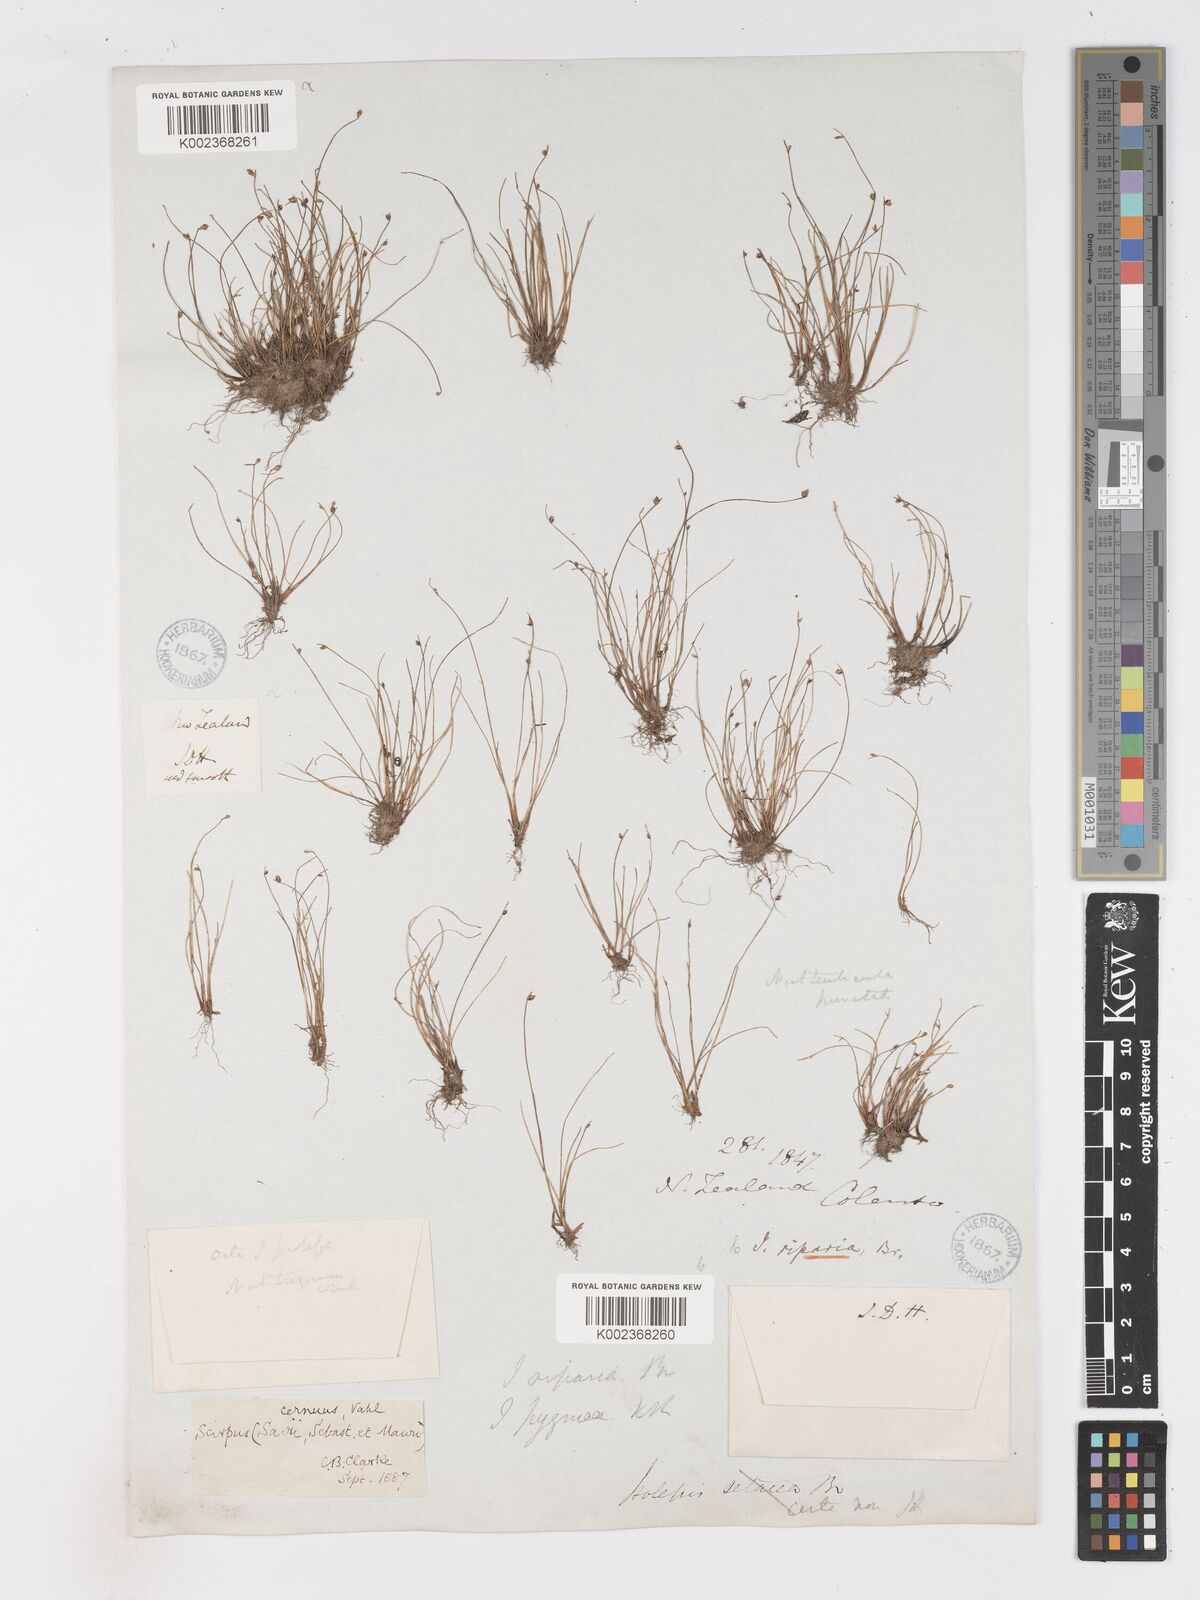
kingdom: Plantae
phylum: Tracheophyta
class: Liliopsida
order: Poales
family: Cyperaceae
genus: Isolepis
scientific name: Isolepis cernua
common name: Slender club-rush
